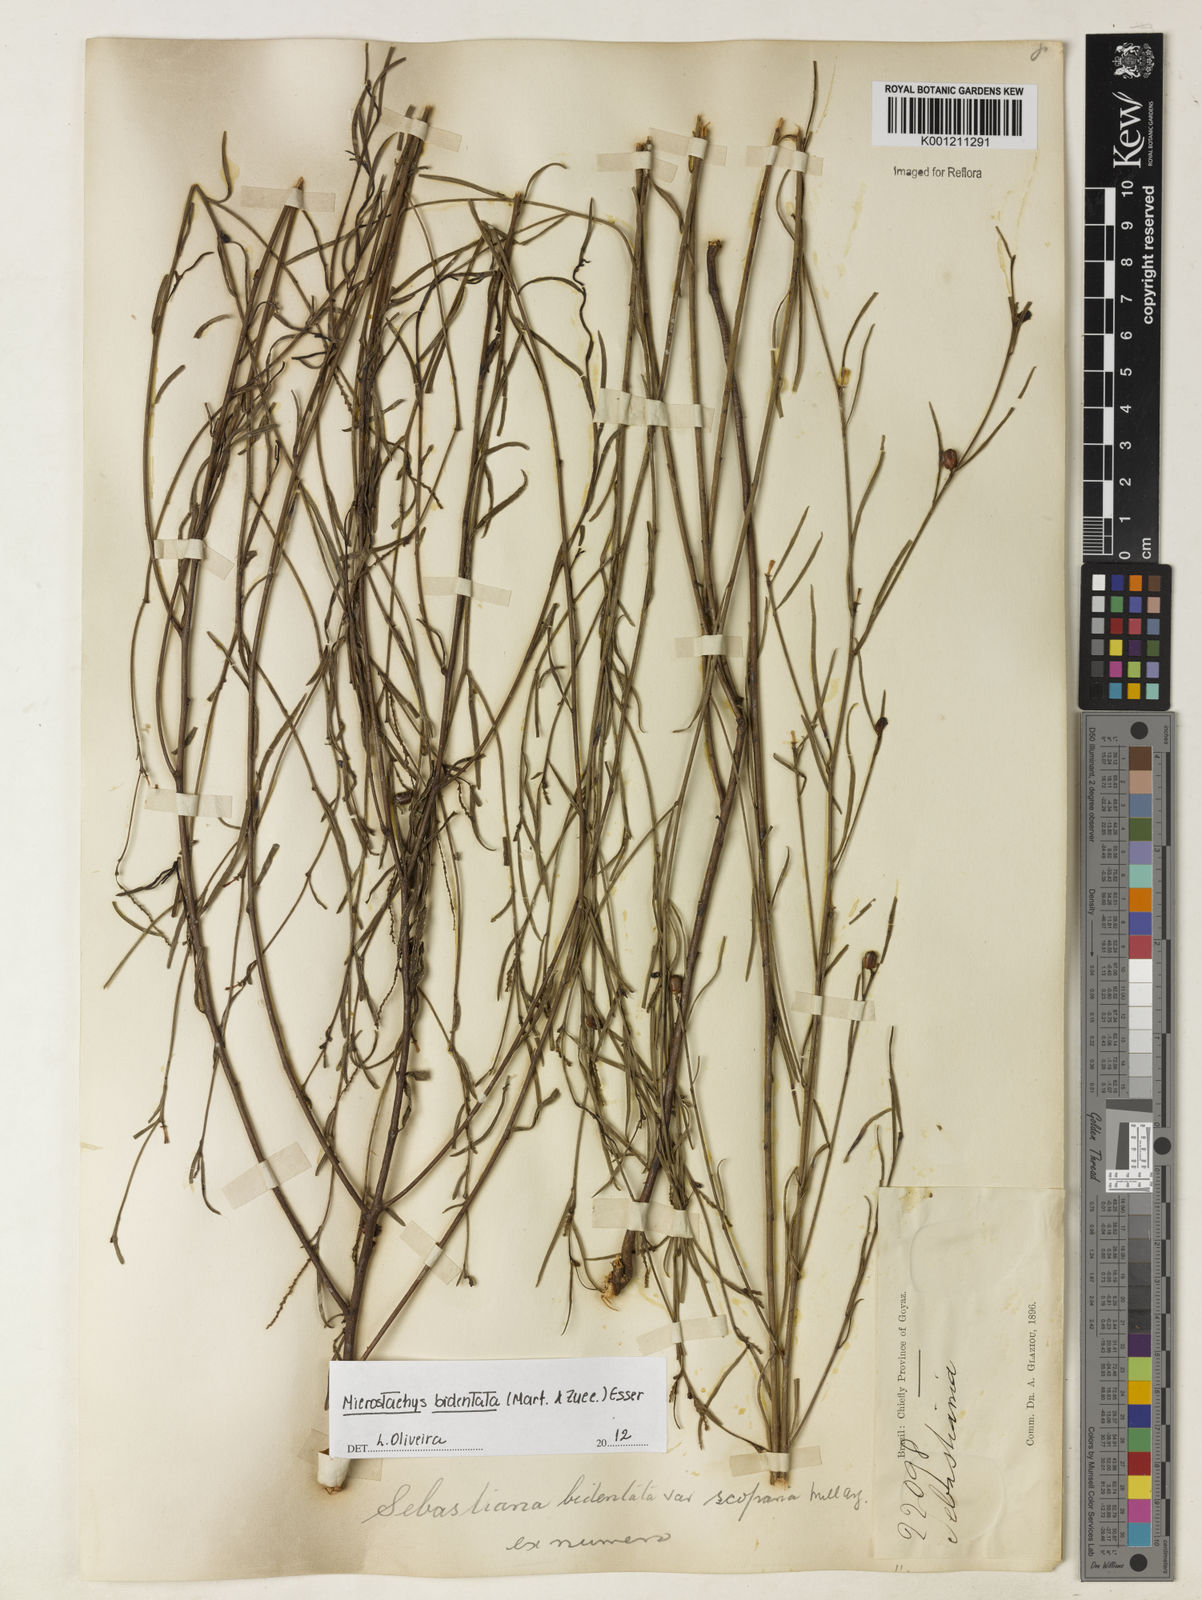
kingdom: Plantae
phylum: Tracheophyta
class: Magnoliopsida
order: Malpighiales
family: Euphorbiaceae
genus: Microstachys
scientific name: Microstachys bidentata
